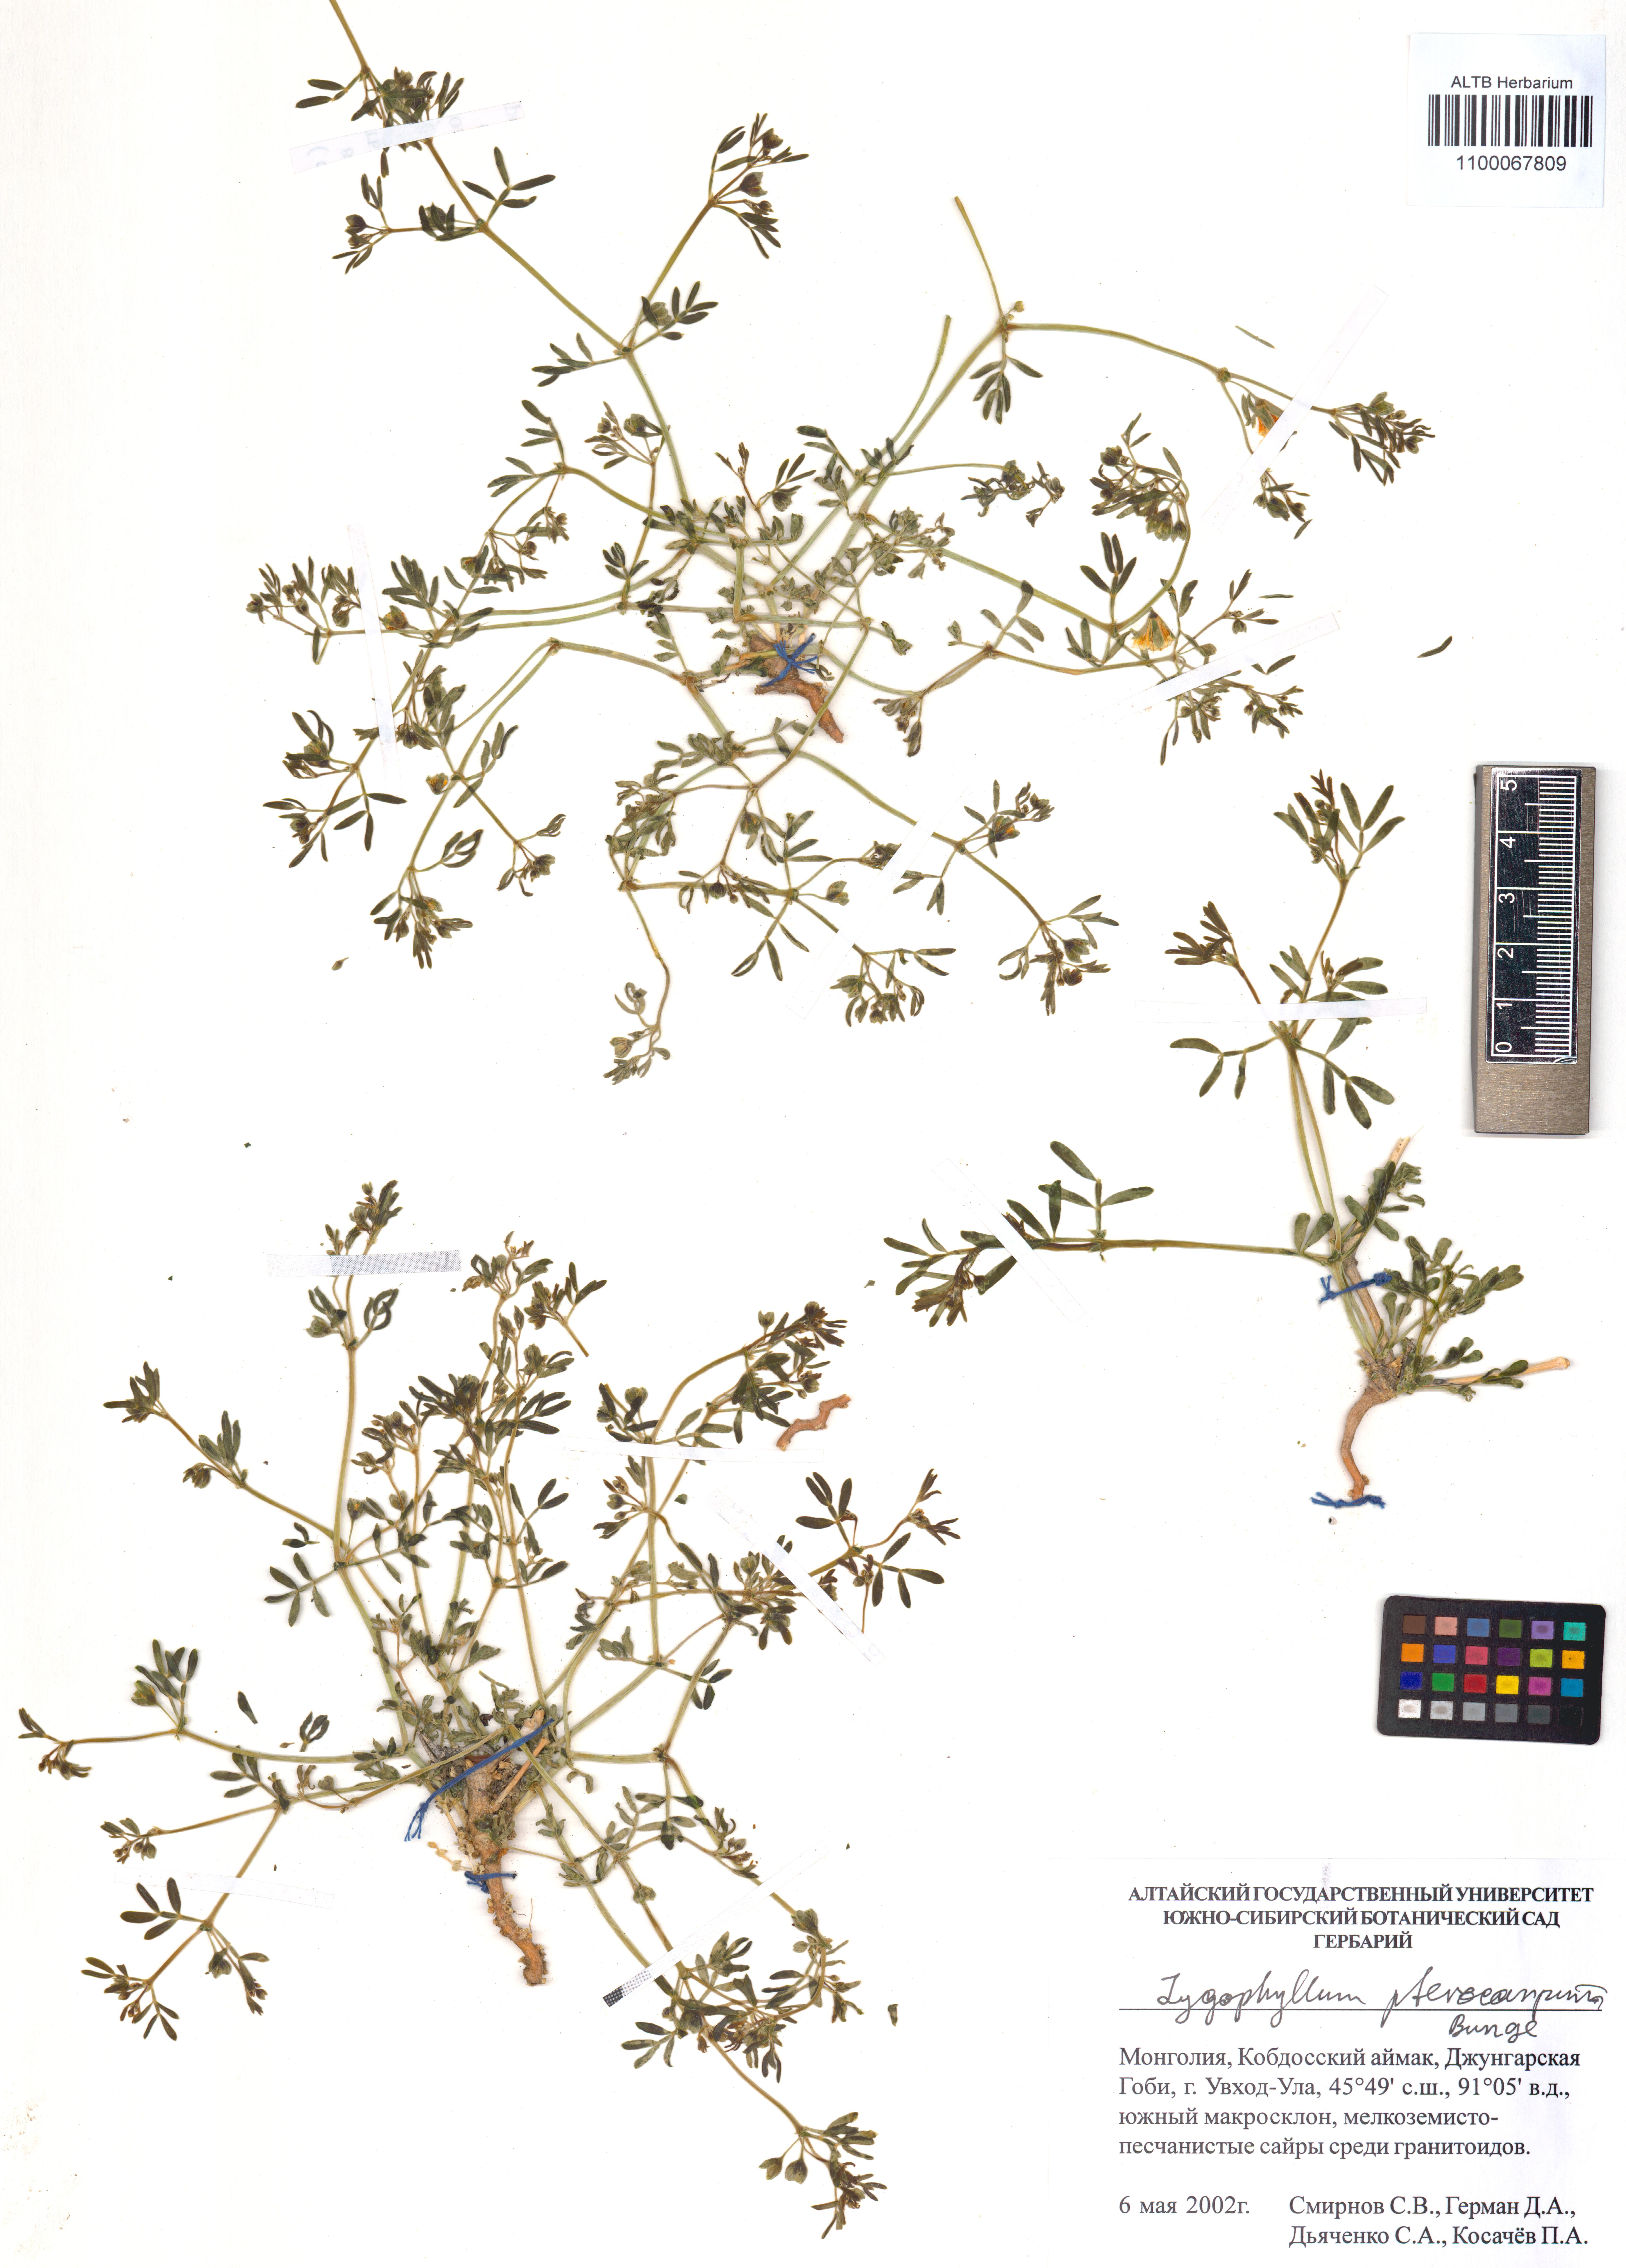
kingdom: Plantae
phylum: Tracheophyta
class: Magnoliopsida
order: Zygophyllales
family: Zygophyllaceae
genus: Zygophyllum
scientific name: Zygophyllum pterocarpum
